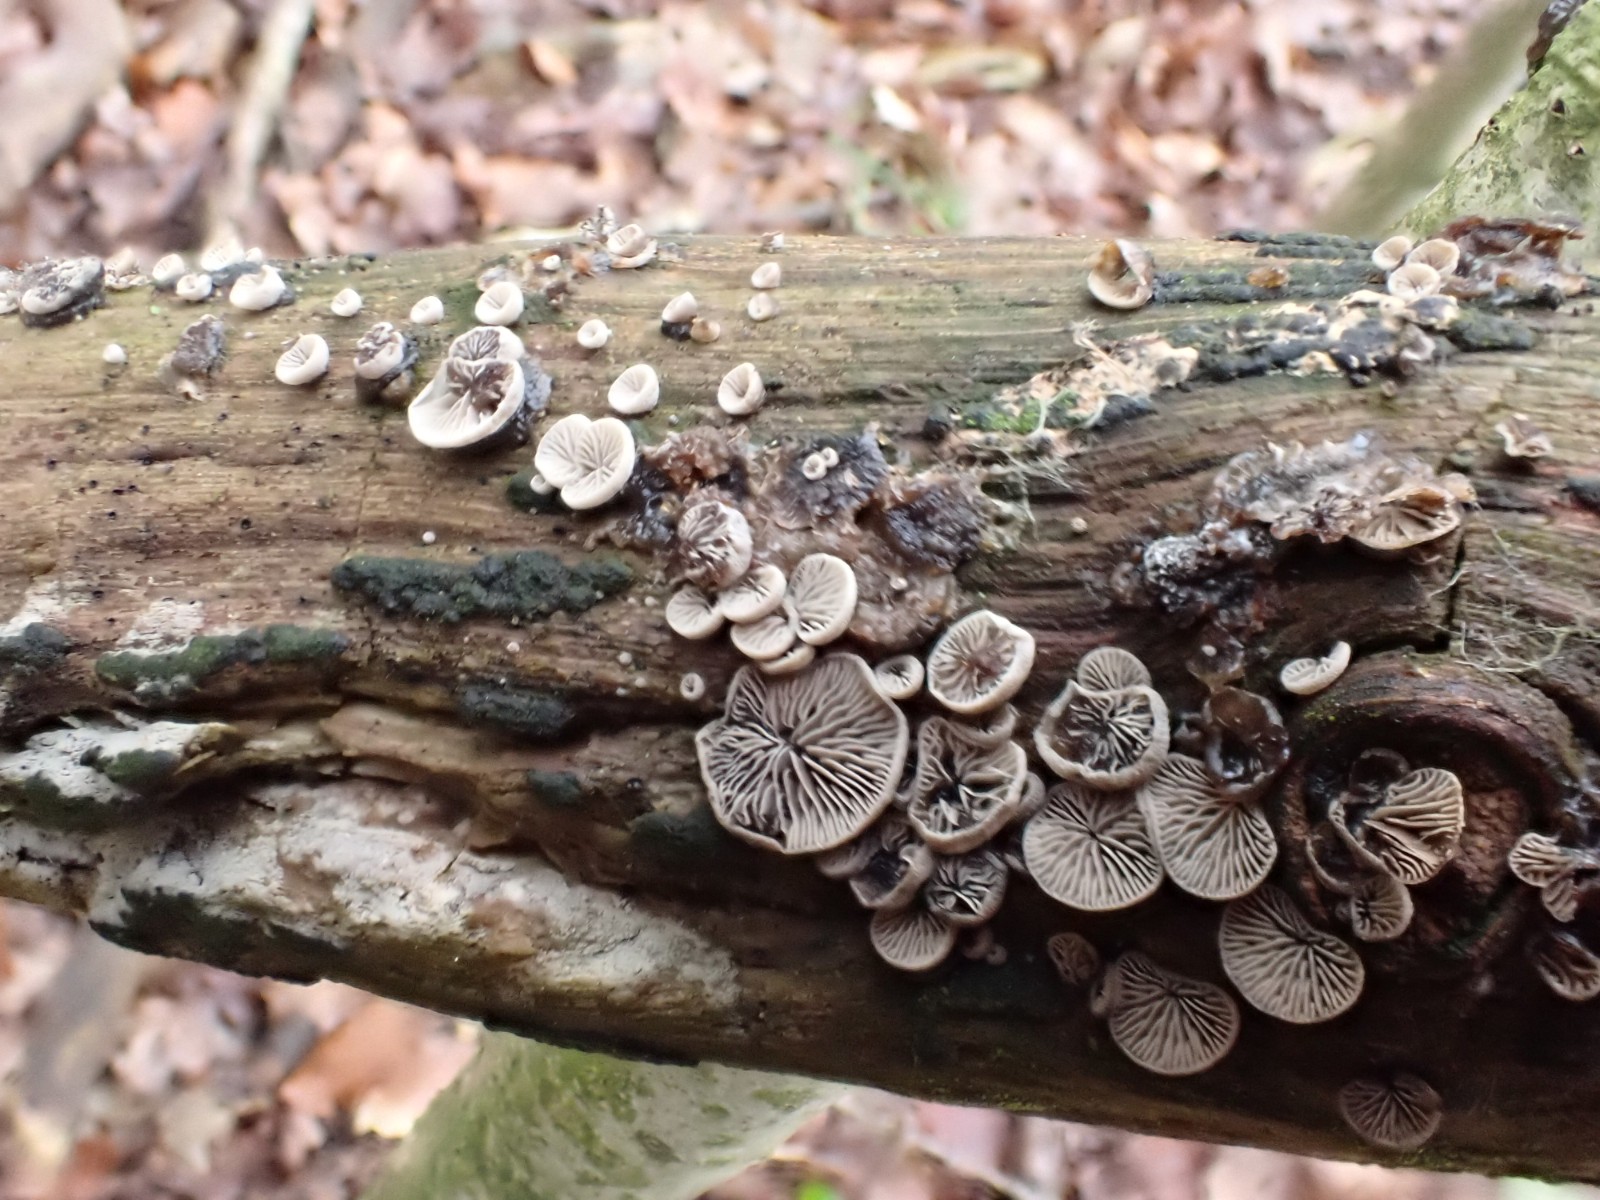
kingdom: Fungi
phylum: Basidiomycota
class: Agaricomycetes
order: Agaricales
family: Pleurotaceae
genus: Resupinatus
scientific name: Resupinatus applicatus
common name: lysfiltet barkhat
